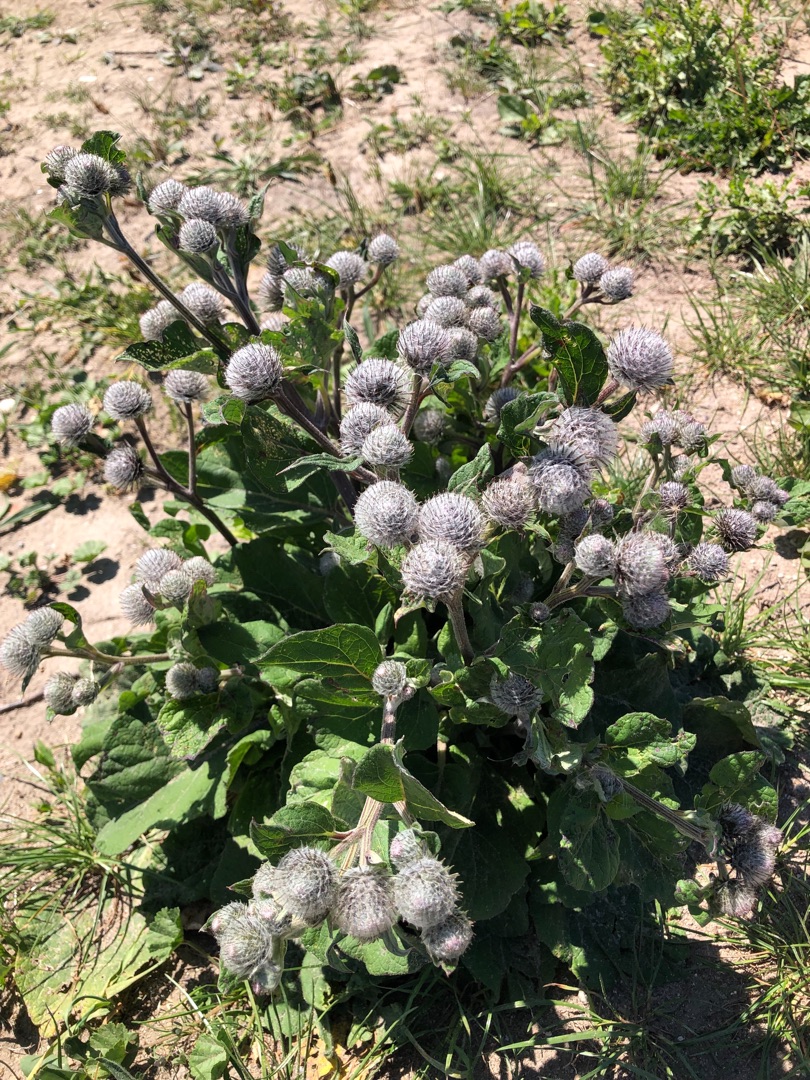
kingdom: Plantae
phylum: Tracheophyta
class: Magnoliopsida
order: Asterales
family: Asteraceae
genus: Arctium
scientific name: Arctium tomentosum
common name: Filtet burre
